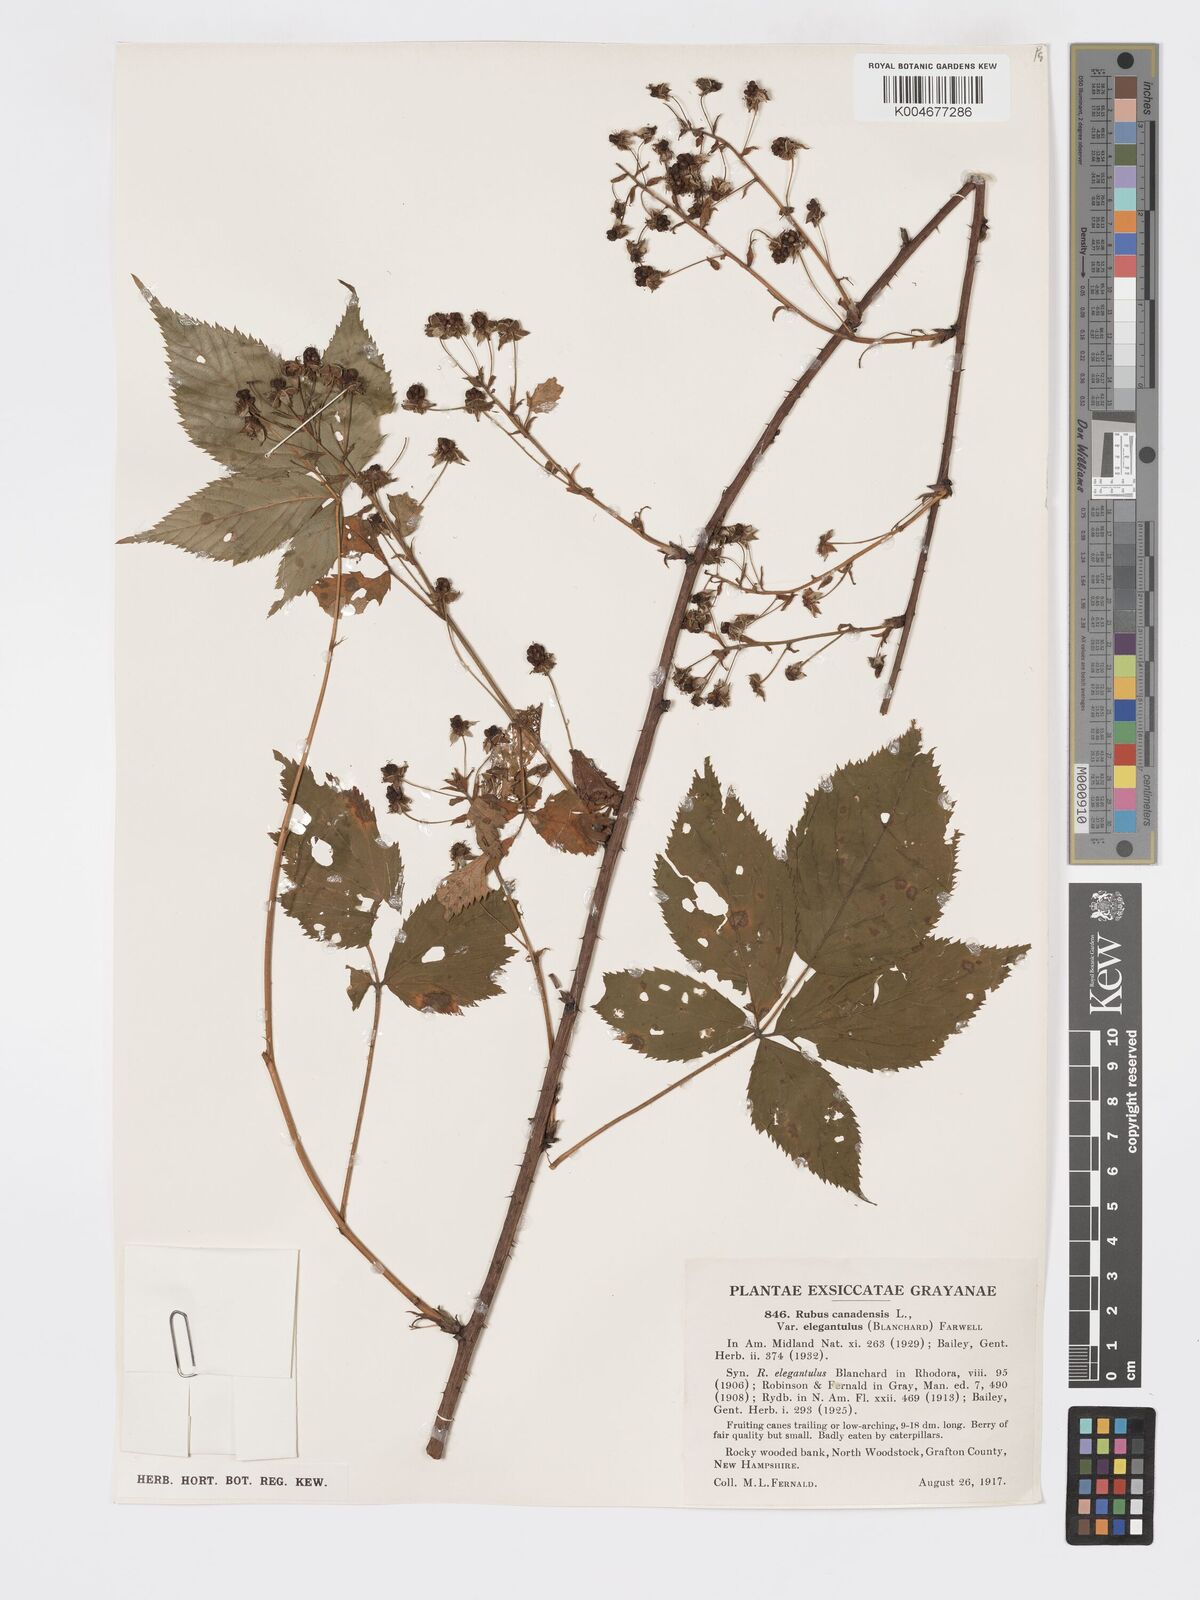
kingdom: Plantae
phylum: Tracheophyta
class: Magnoliopsida
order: Rosales
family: Rosaceae
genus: Rubus
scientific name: Rubus canadensis
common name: Smooth blackberry
